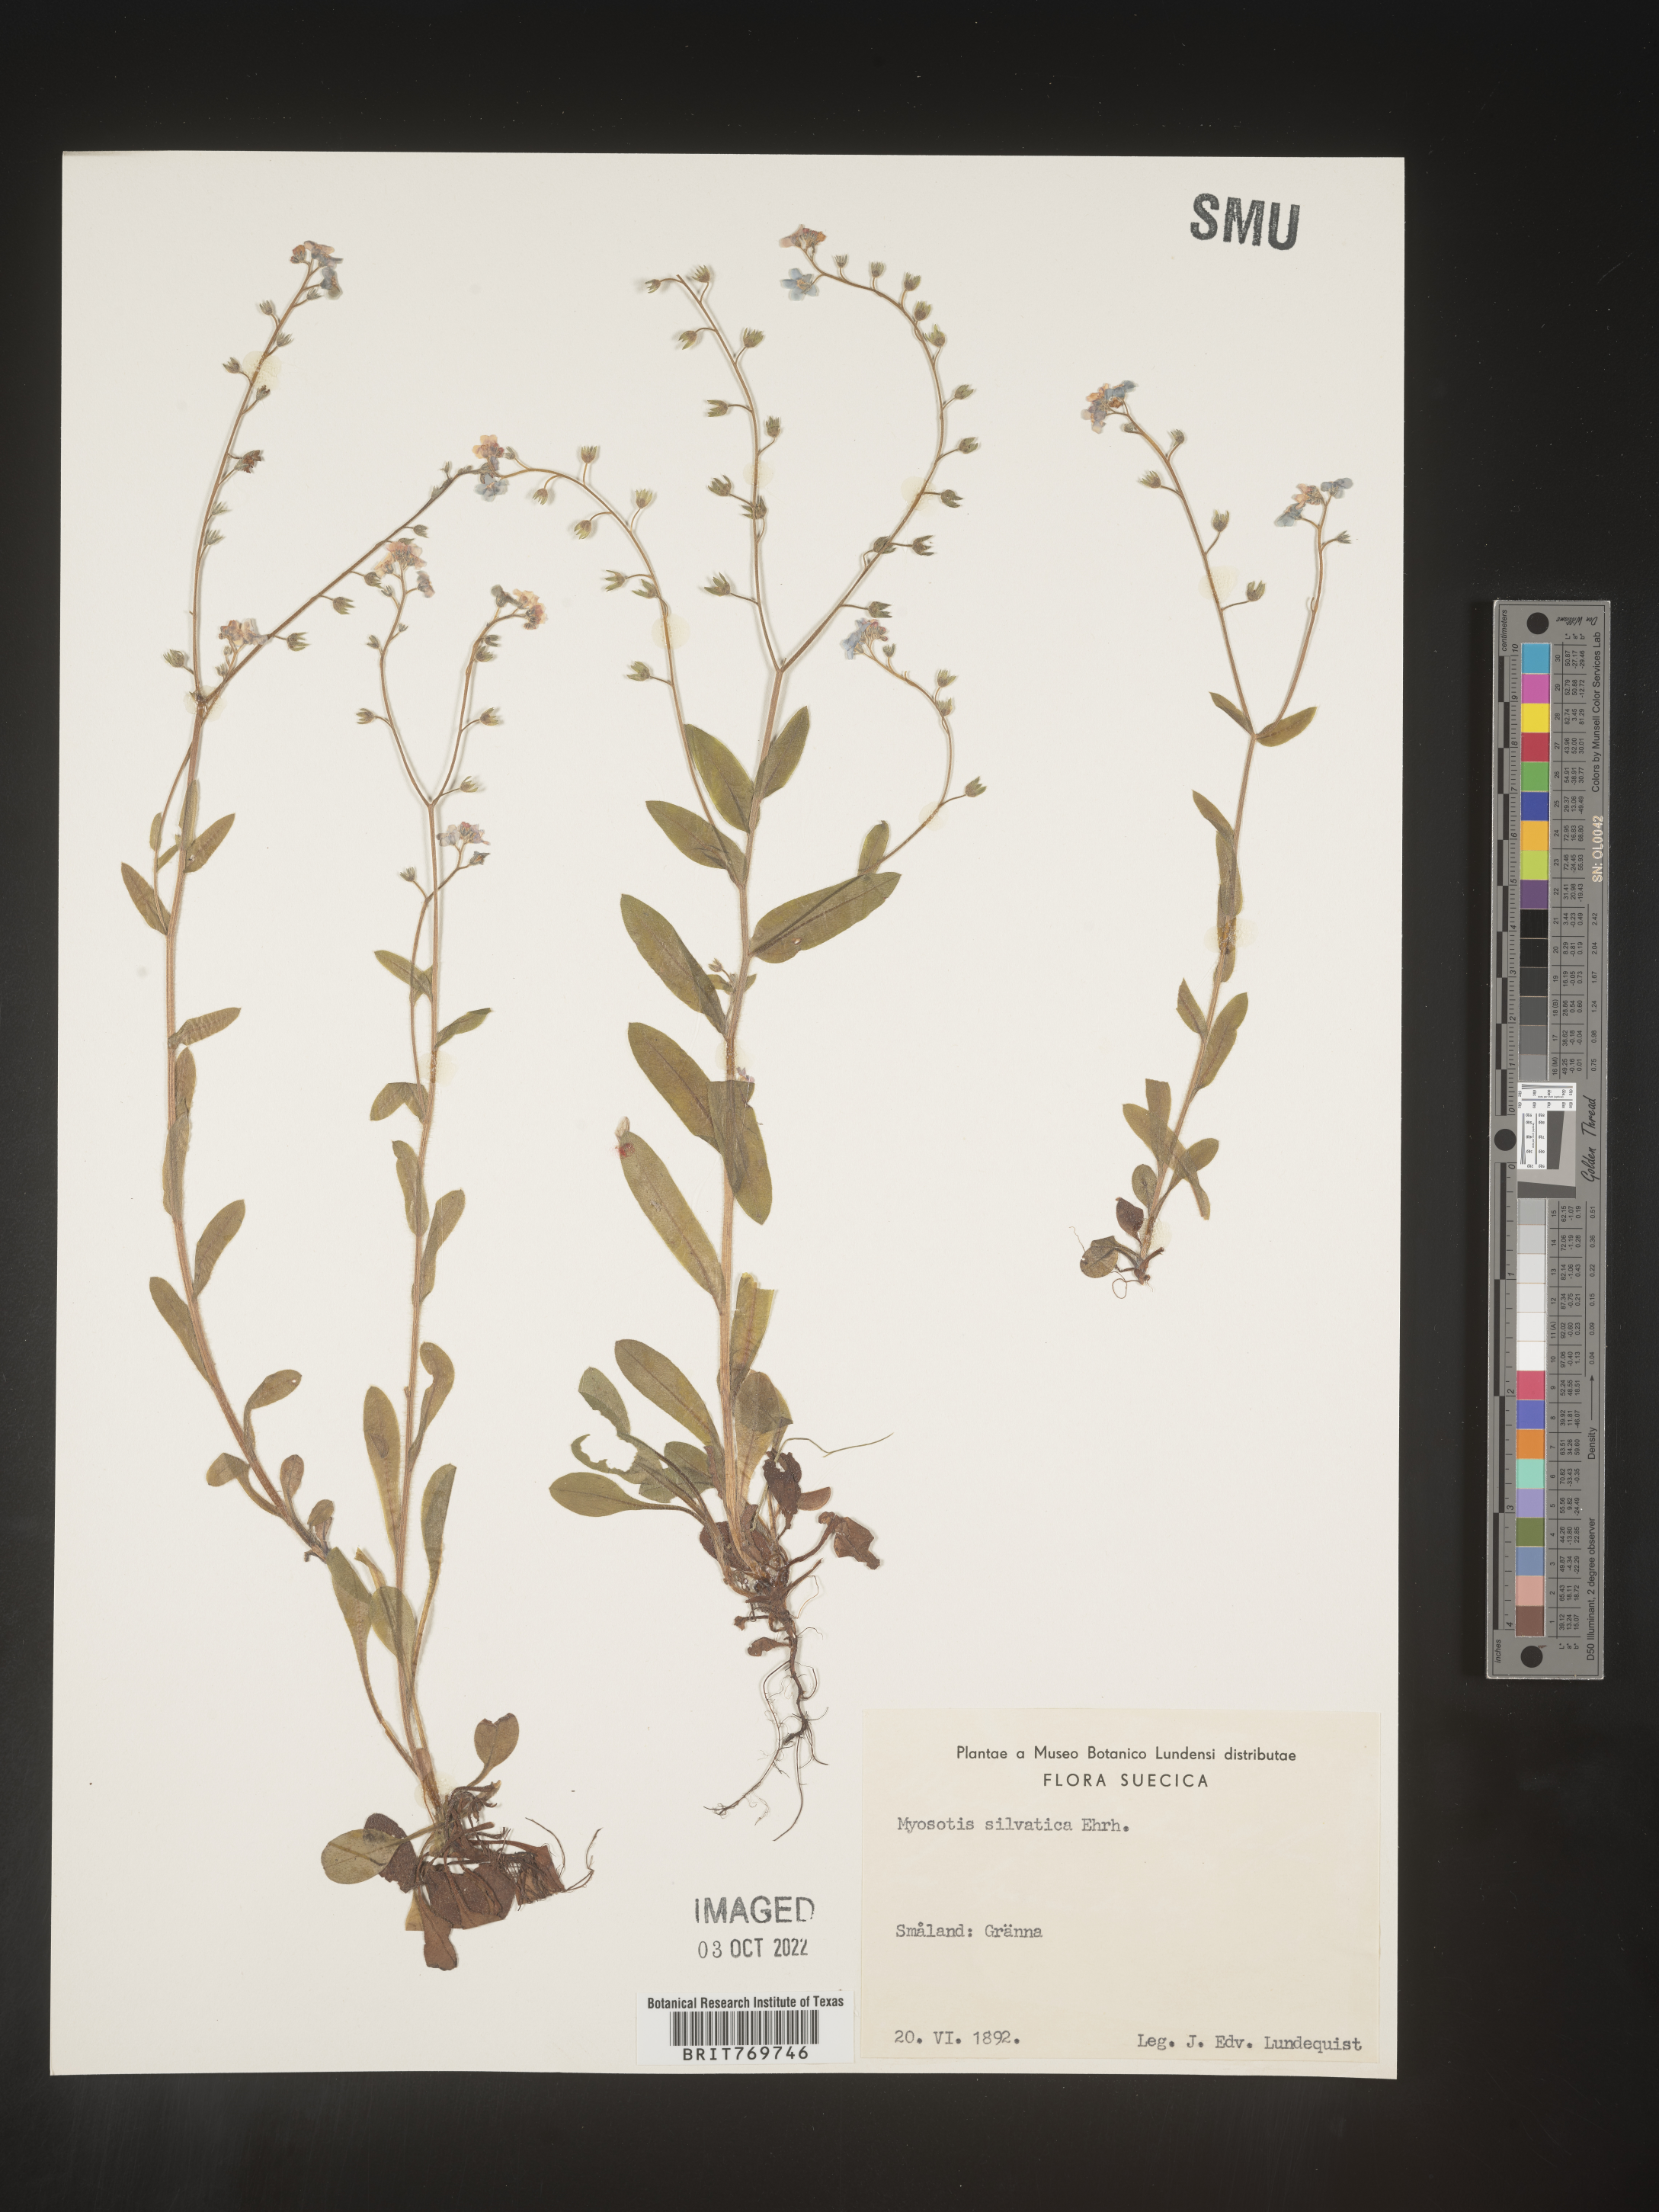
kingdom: Plantae
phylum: Tracheophyta
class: Magnoliopsida
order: Boraginales
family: Boraginaceae
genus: Myosotis
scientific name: Myosotis
